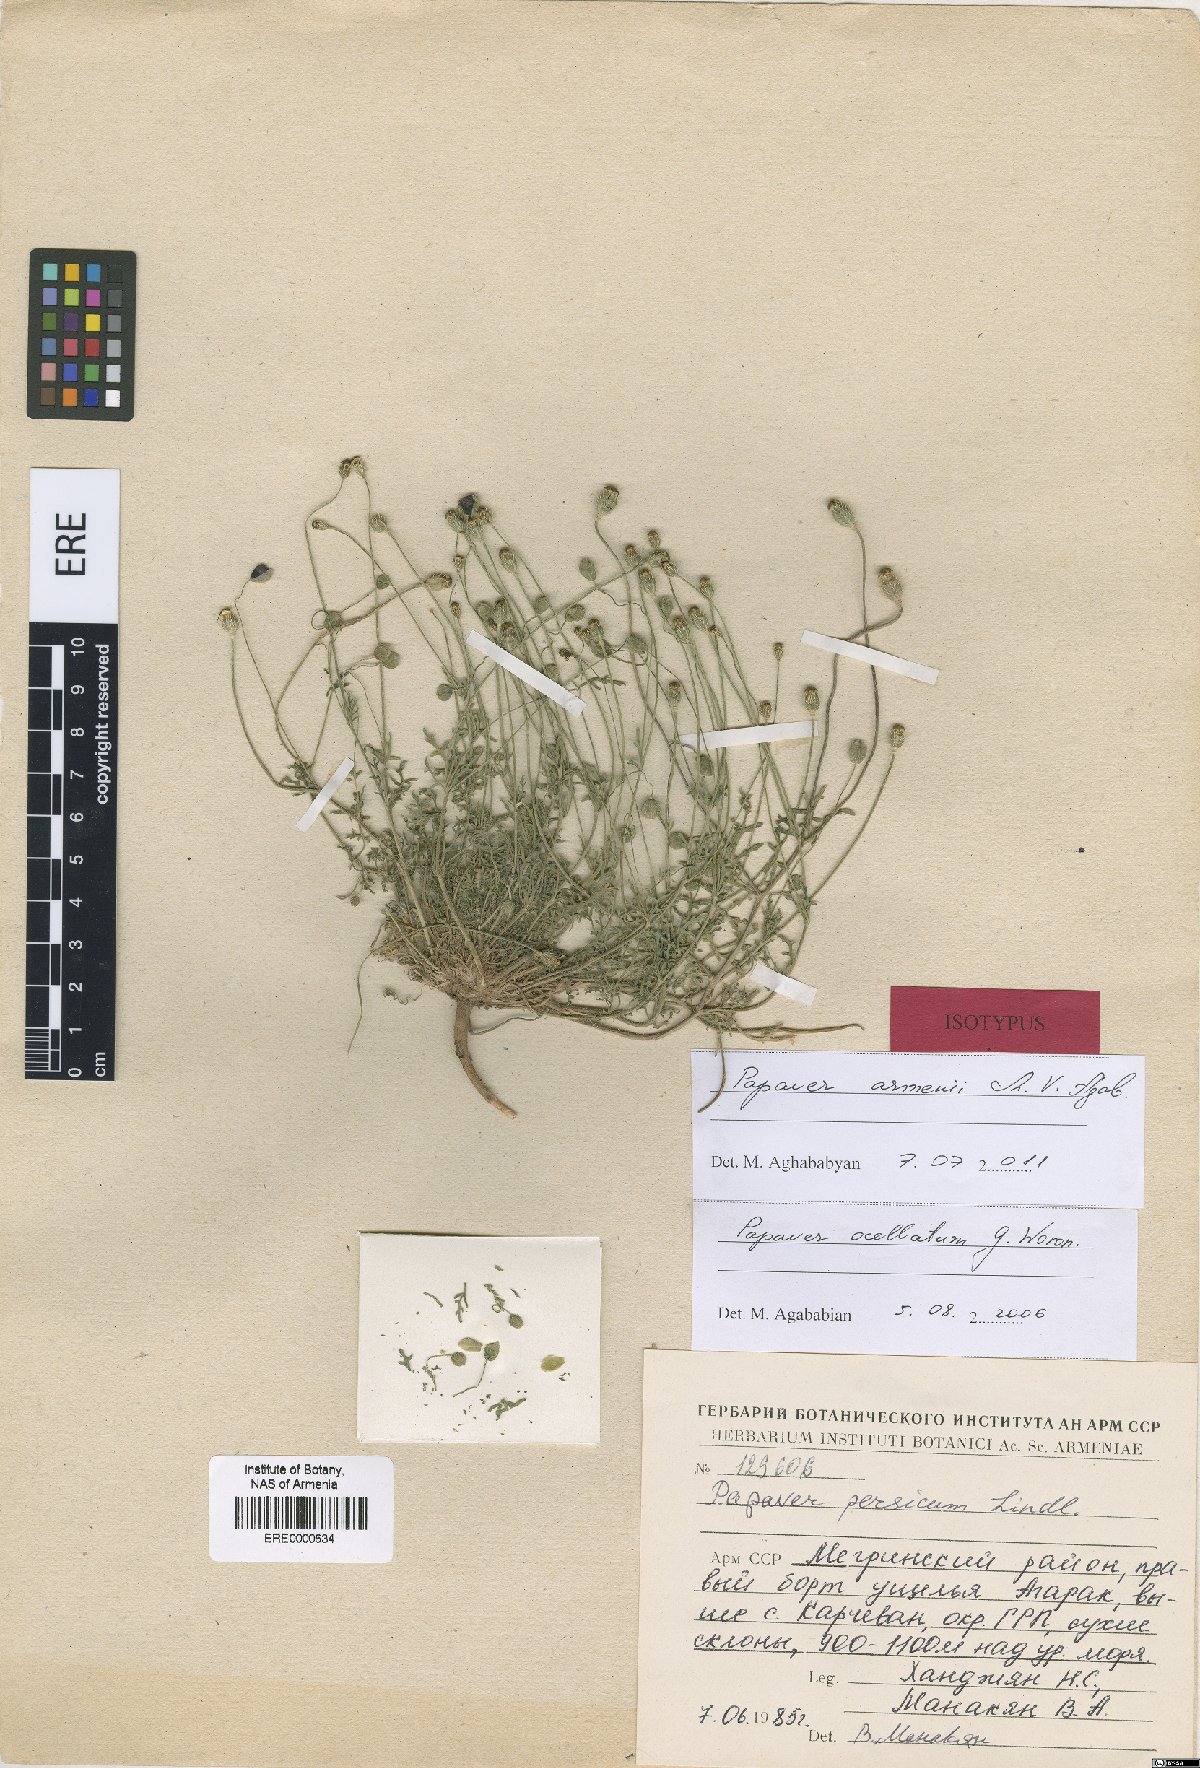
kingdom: Plantae
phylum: Tracheophyta
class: Magnoliopsida
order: Ranunculales
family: Papaveraceae
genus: Roemeria
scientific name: Roemeria armenii
